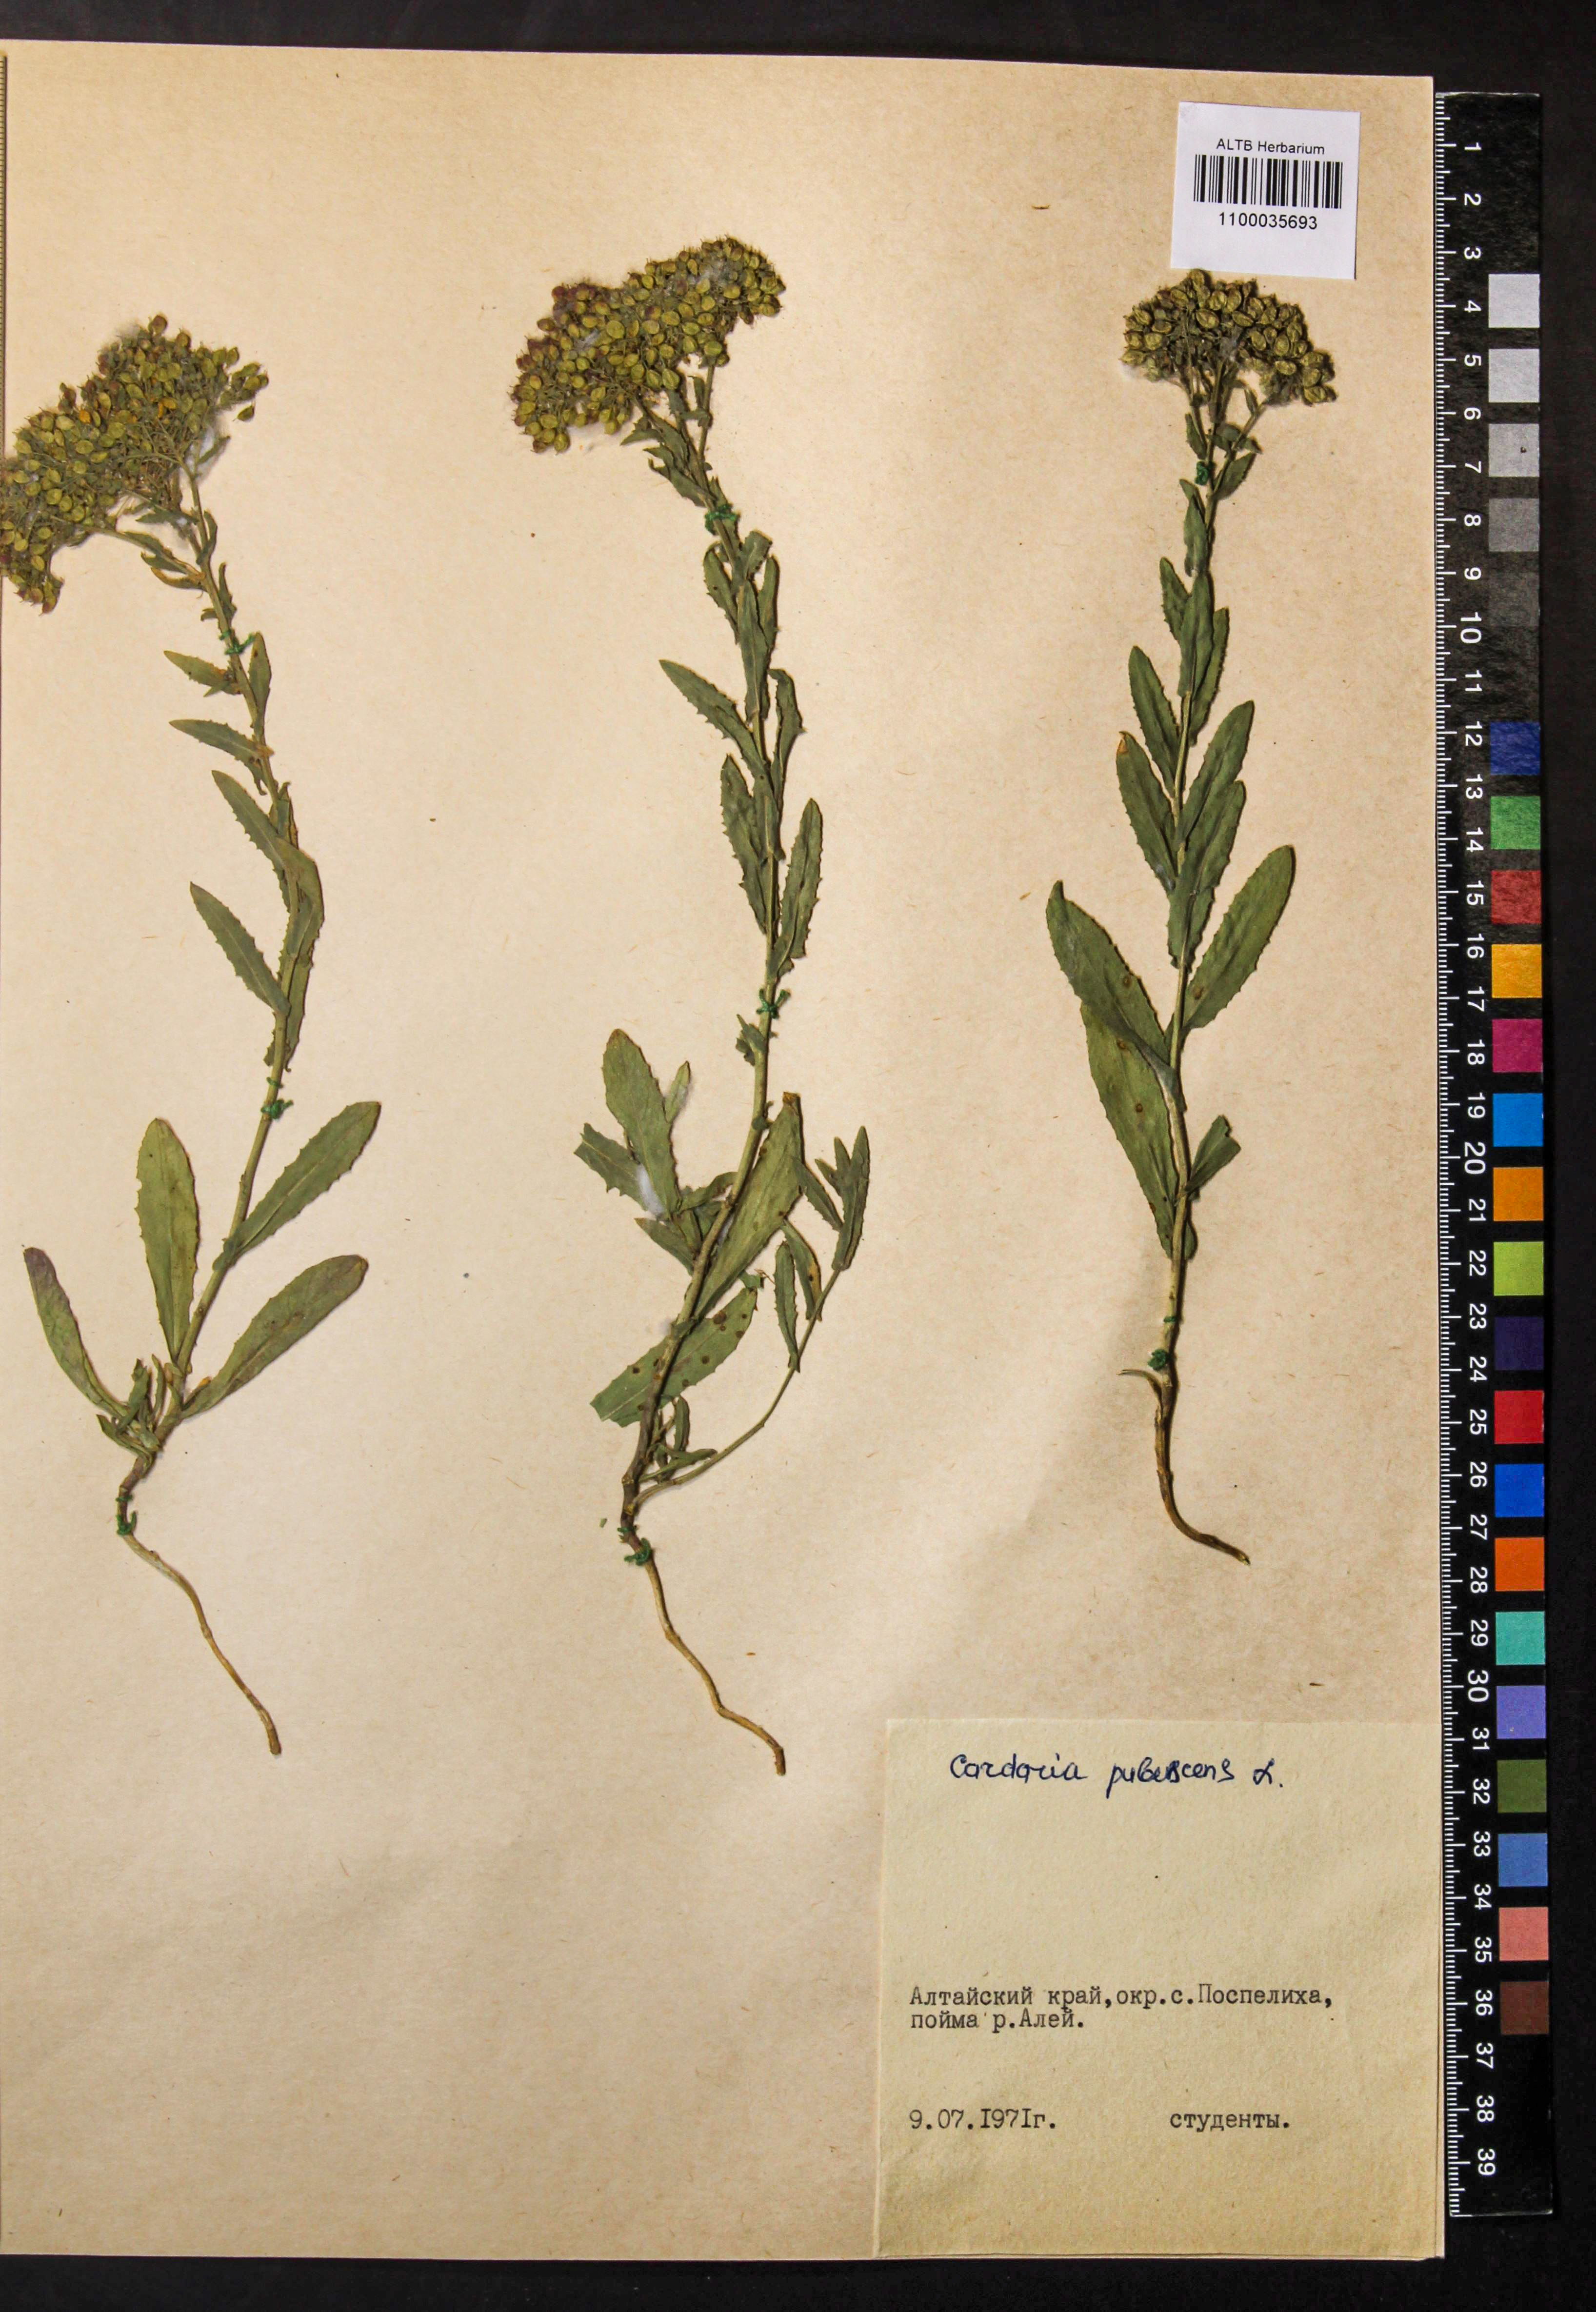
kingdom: Plantae
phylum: Tracheophyta
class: Magnoliopsida
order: Brassicales
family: Brassicaceae
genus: Lepidium
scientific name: Lepidium appelianum
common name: Hairy whitetop
